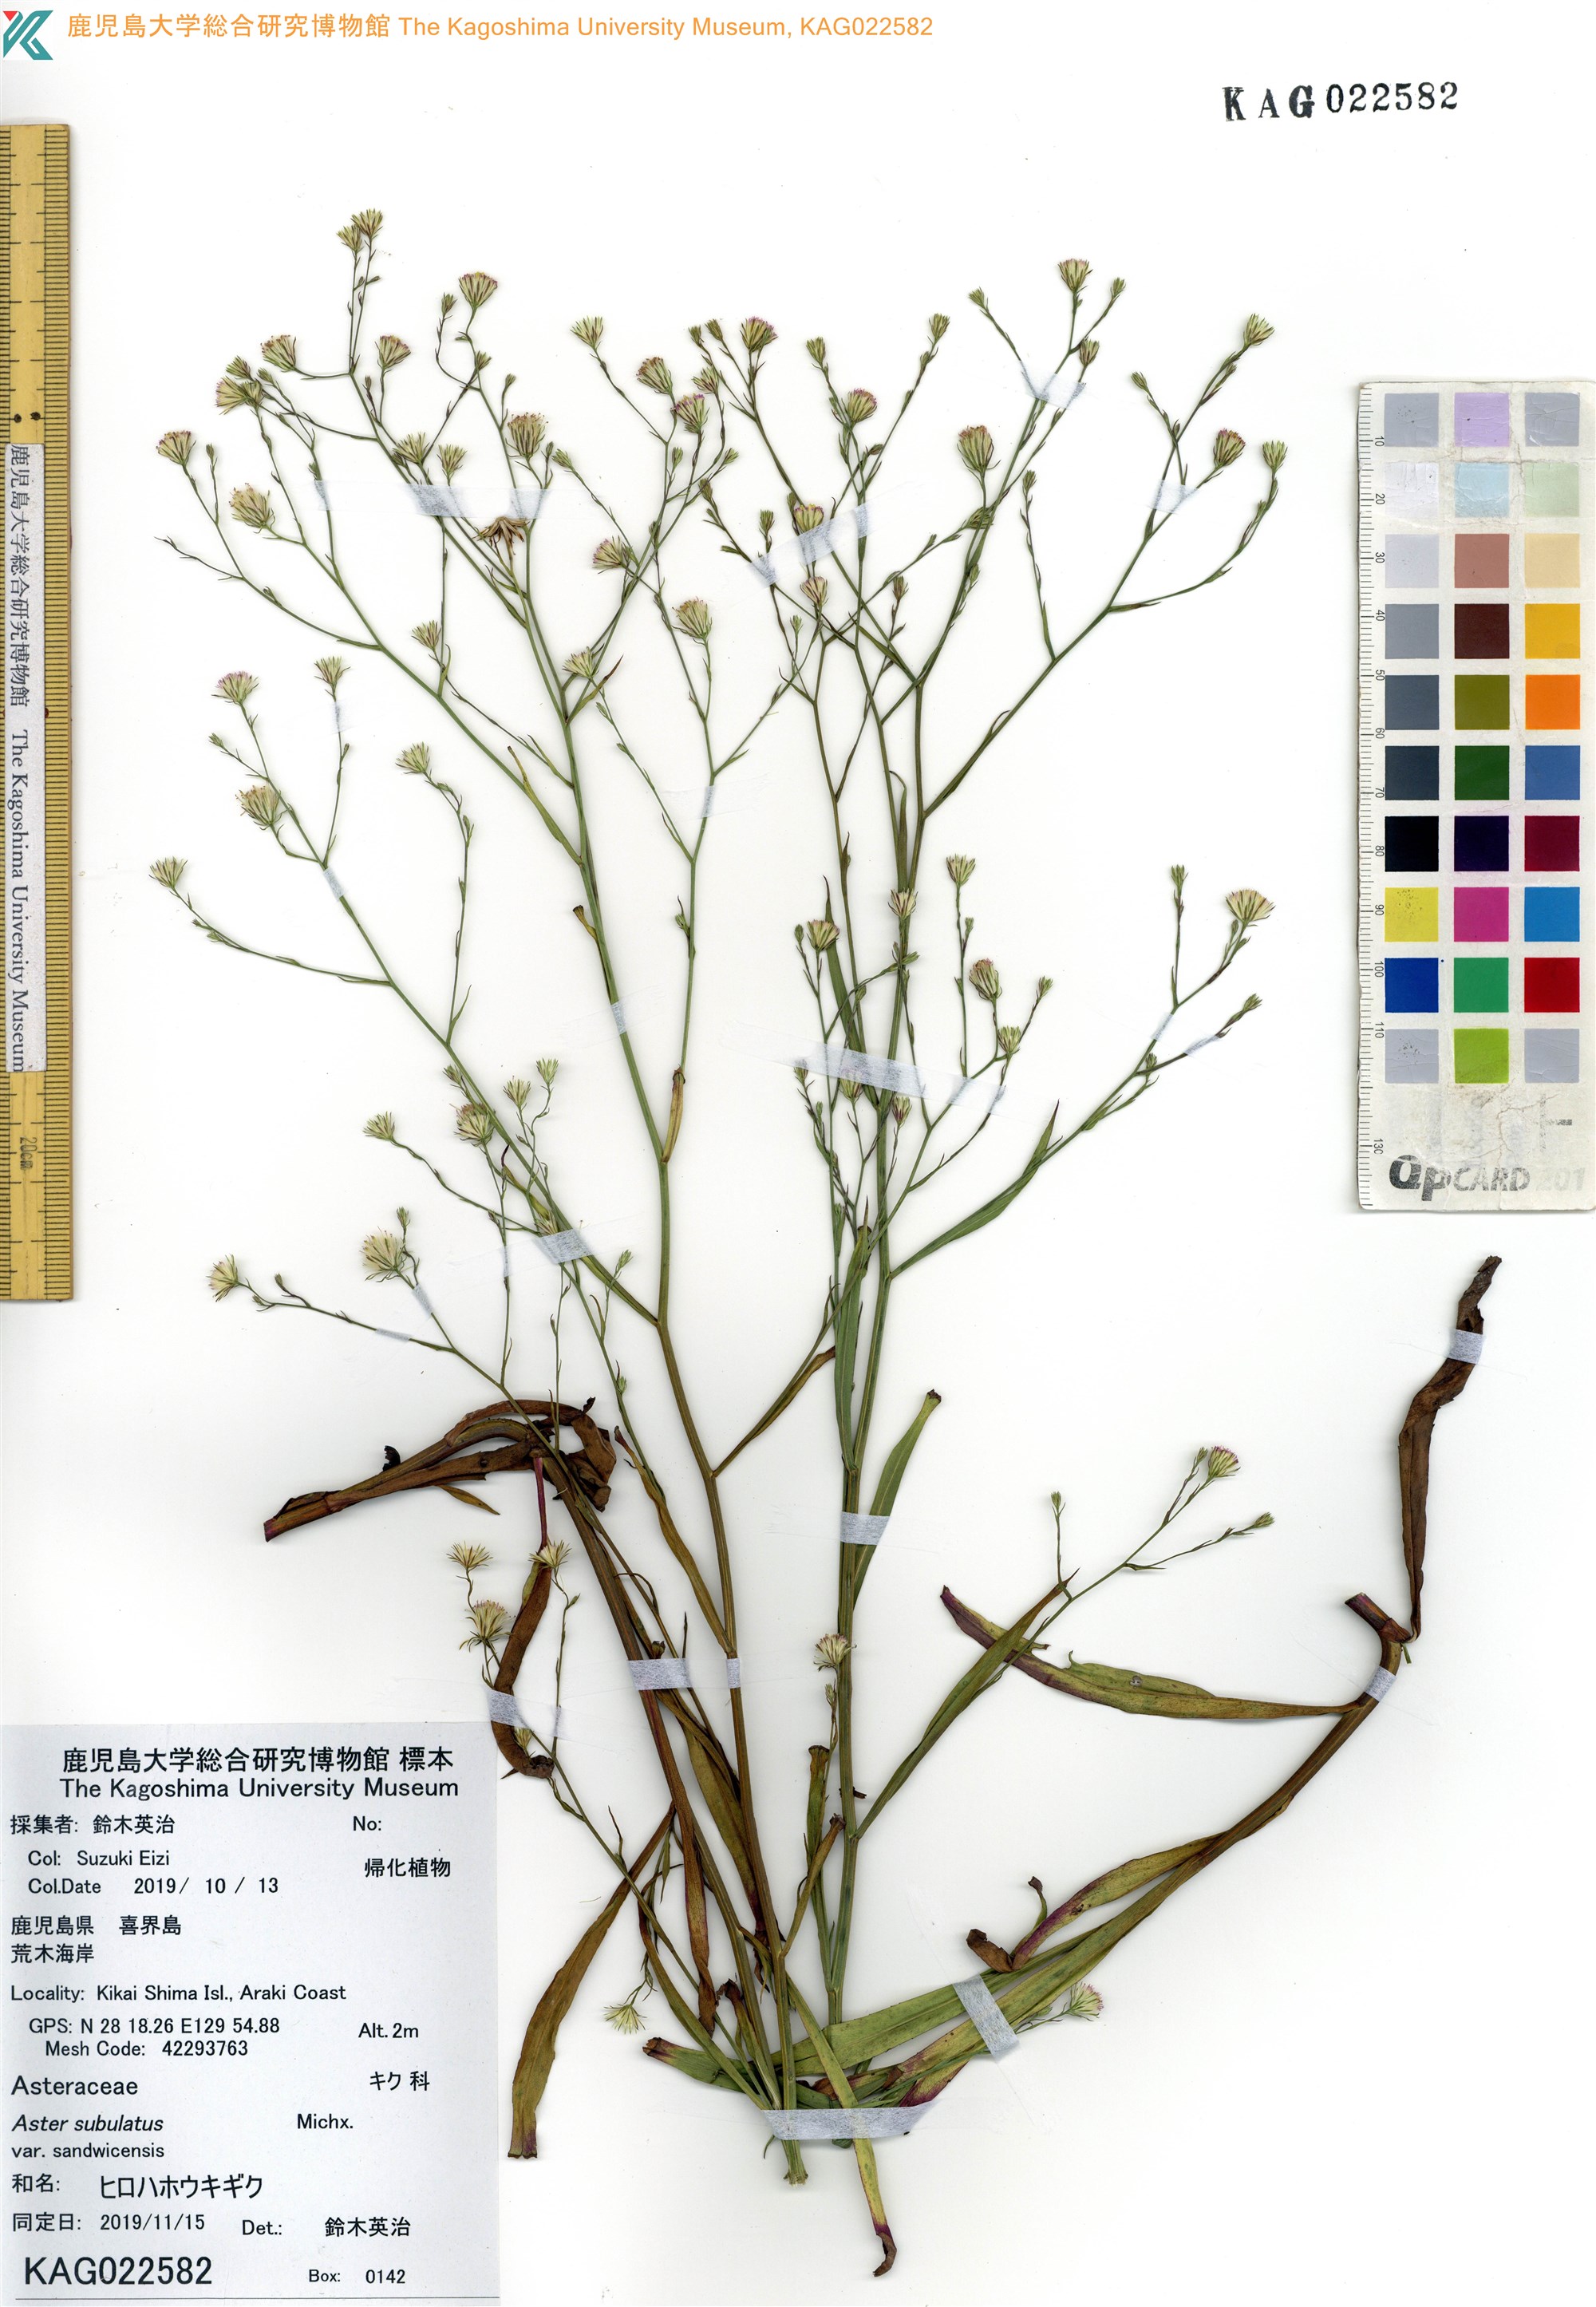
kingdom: Plantae
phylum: Tracheophyta
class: Magnoliopsida
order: Asterales
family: Asteraceae
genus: Symphyotrichum
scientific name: Symphyotrichum squamatum
